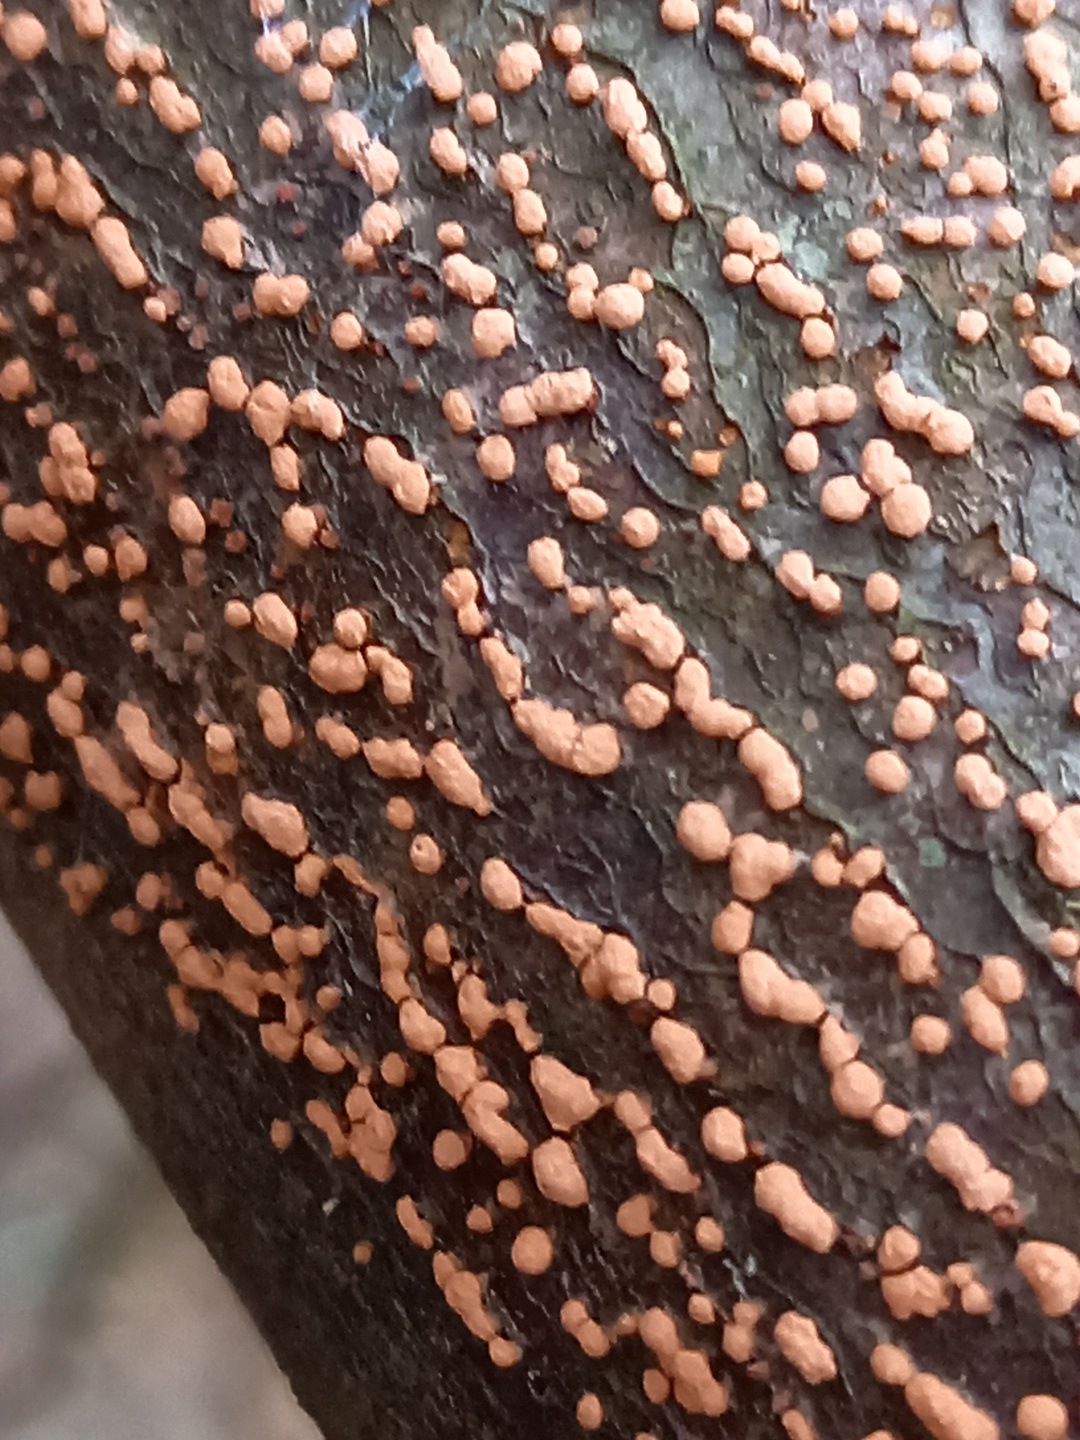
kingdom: Fungi
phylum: Ascomycota
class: Sordariomycetes
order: Hypocreales
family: Nectriaceae
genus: Nectria
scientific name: Nectria cinnabarina
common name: almindelig cinnobersvamp
